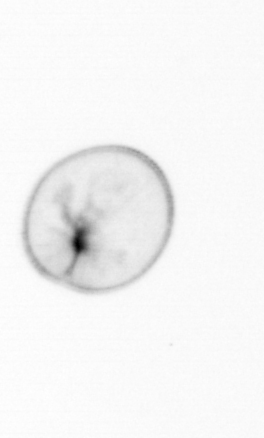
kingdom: Chromista
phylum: Myzozoa
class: Dinophyceae
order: Noctilucales
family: Noctilucaceae
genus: Noctiluca
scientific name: Noctiluca scintillans
